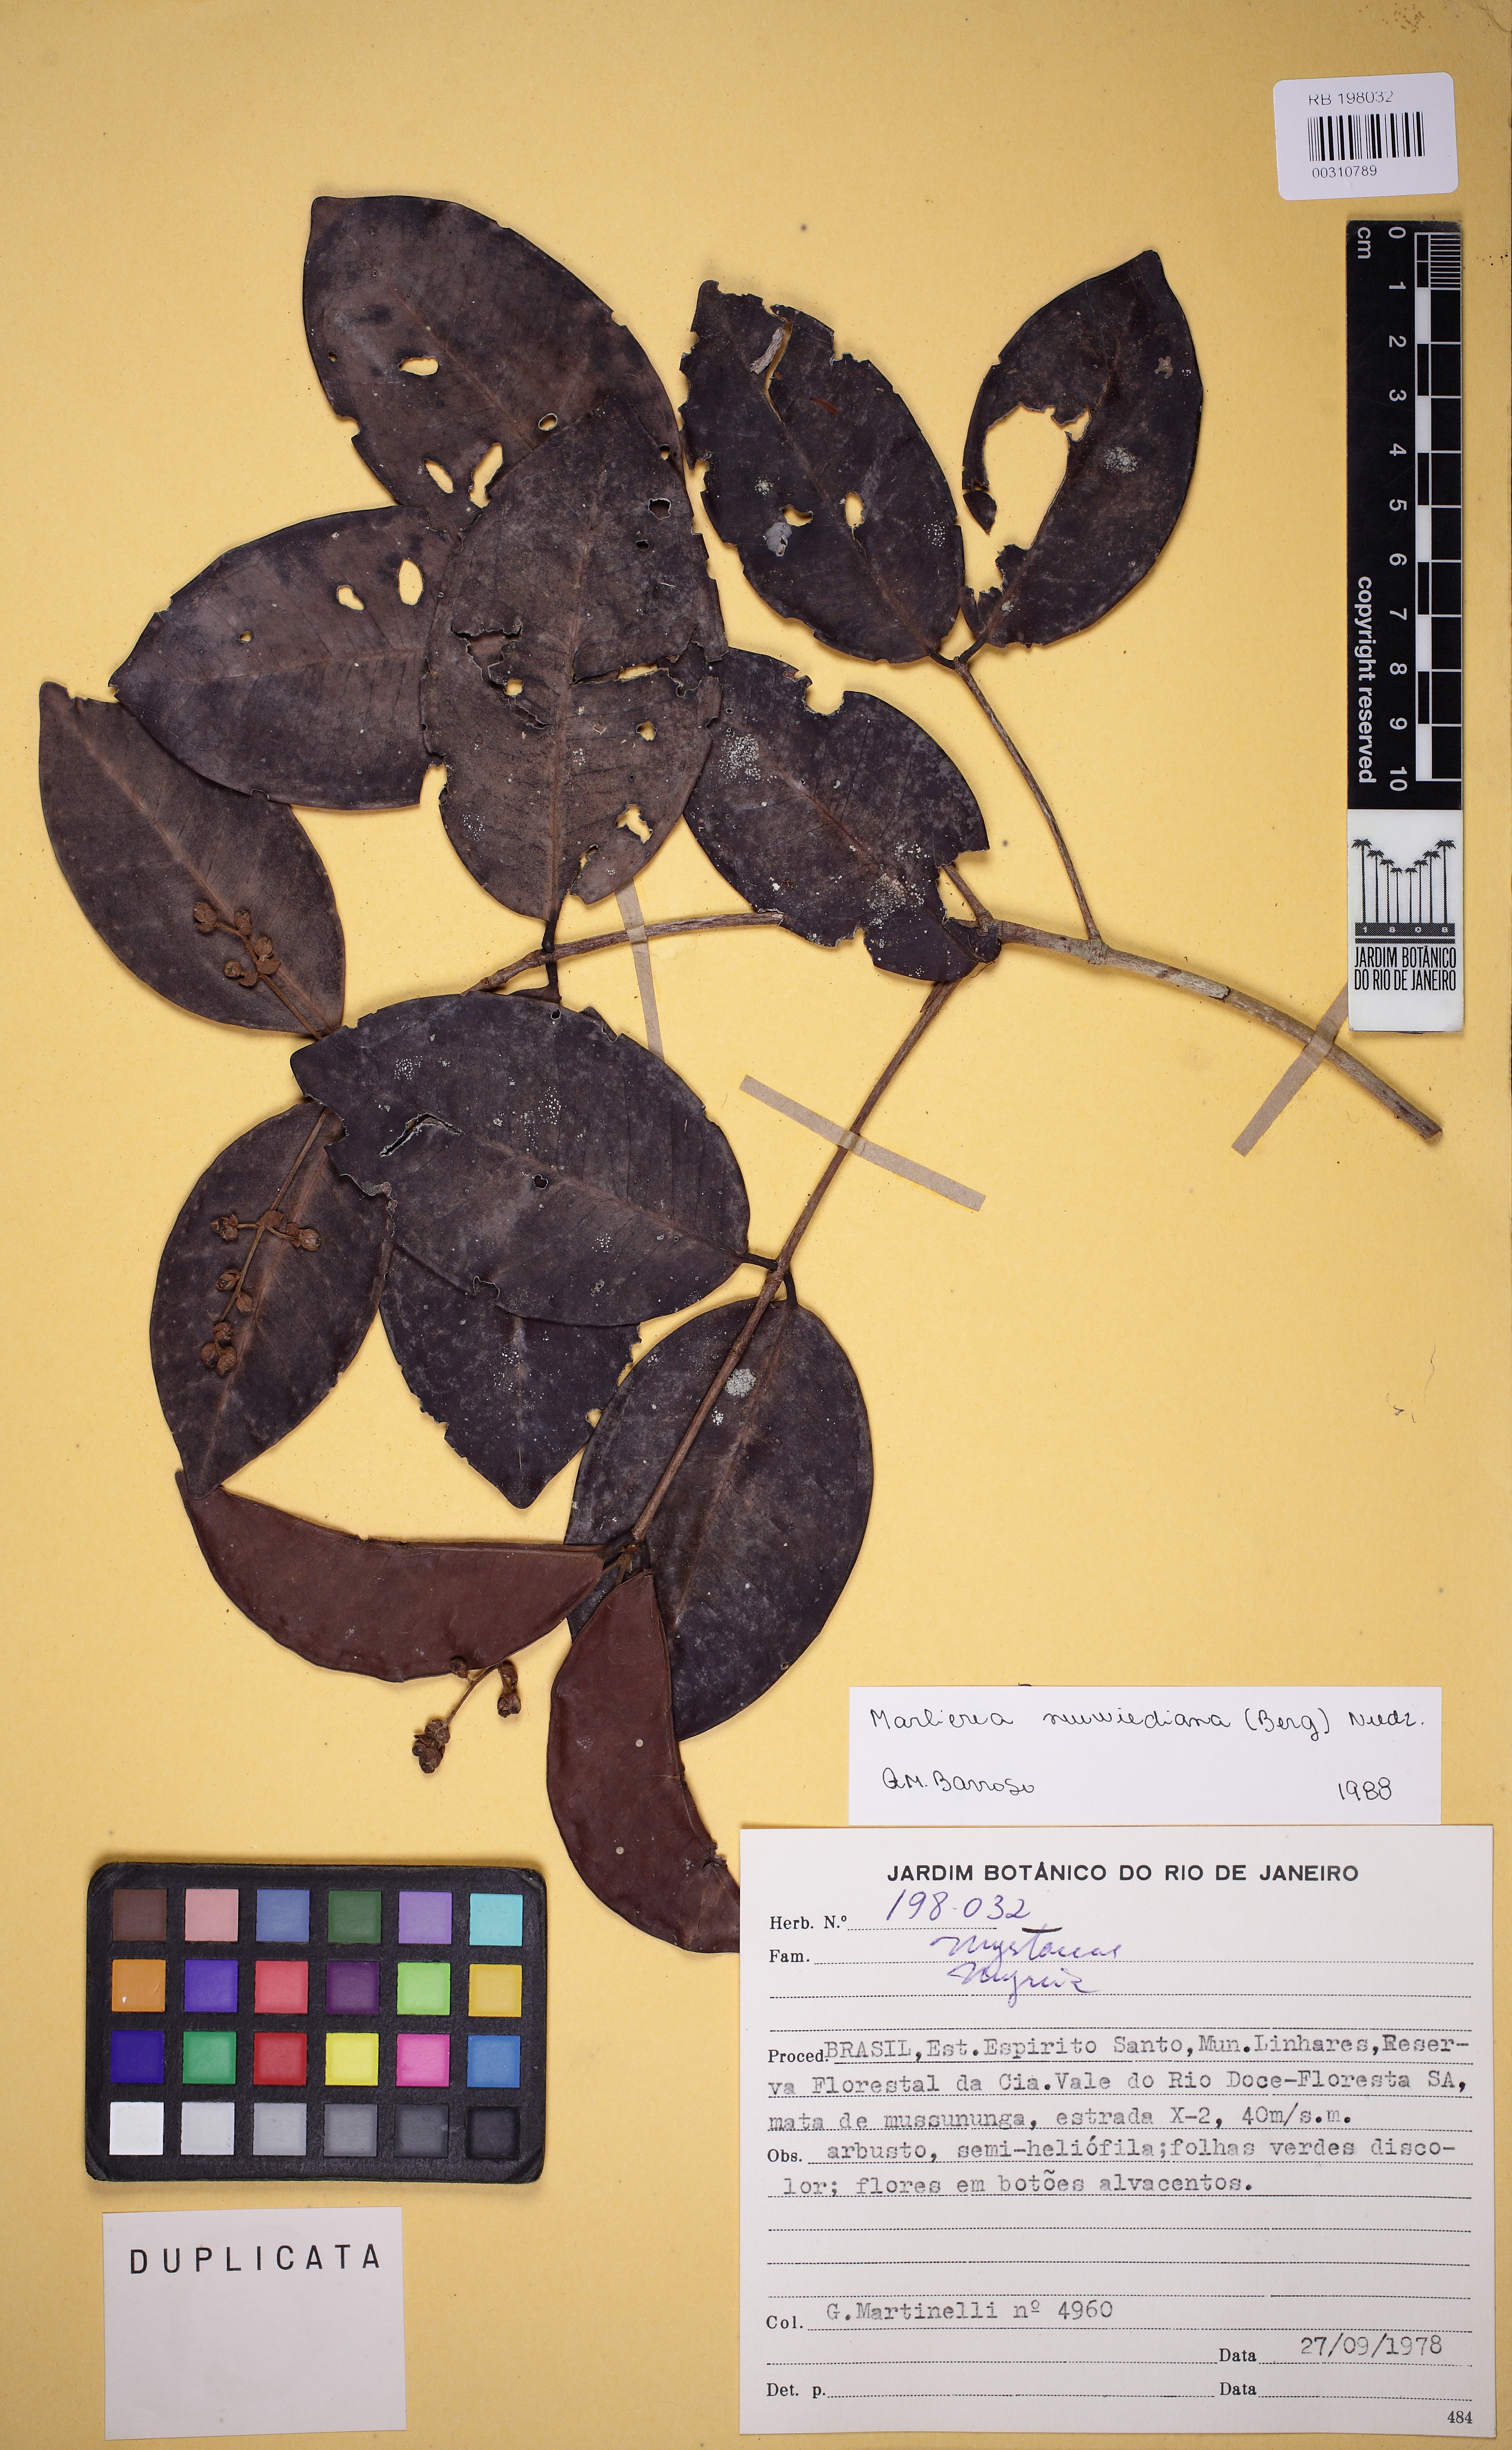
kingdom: Plantae
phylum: Tracheophyta
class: Magnoliopsida
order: Myrtales
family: Myrtaceae
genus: Myrcia
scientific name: Myrcia neuwiedeana
